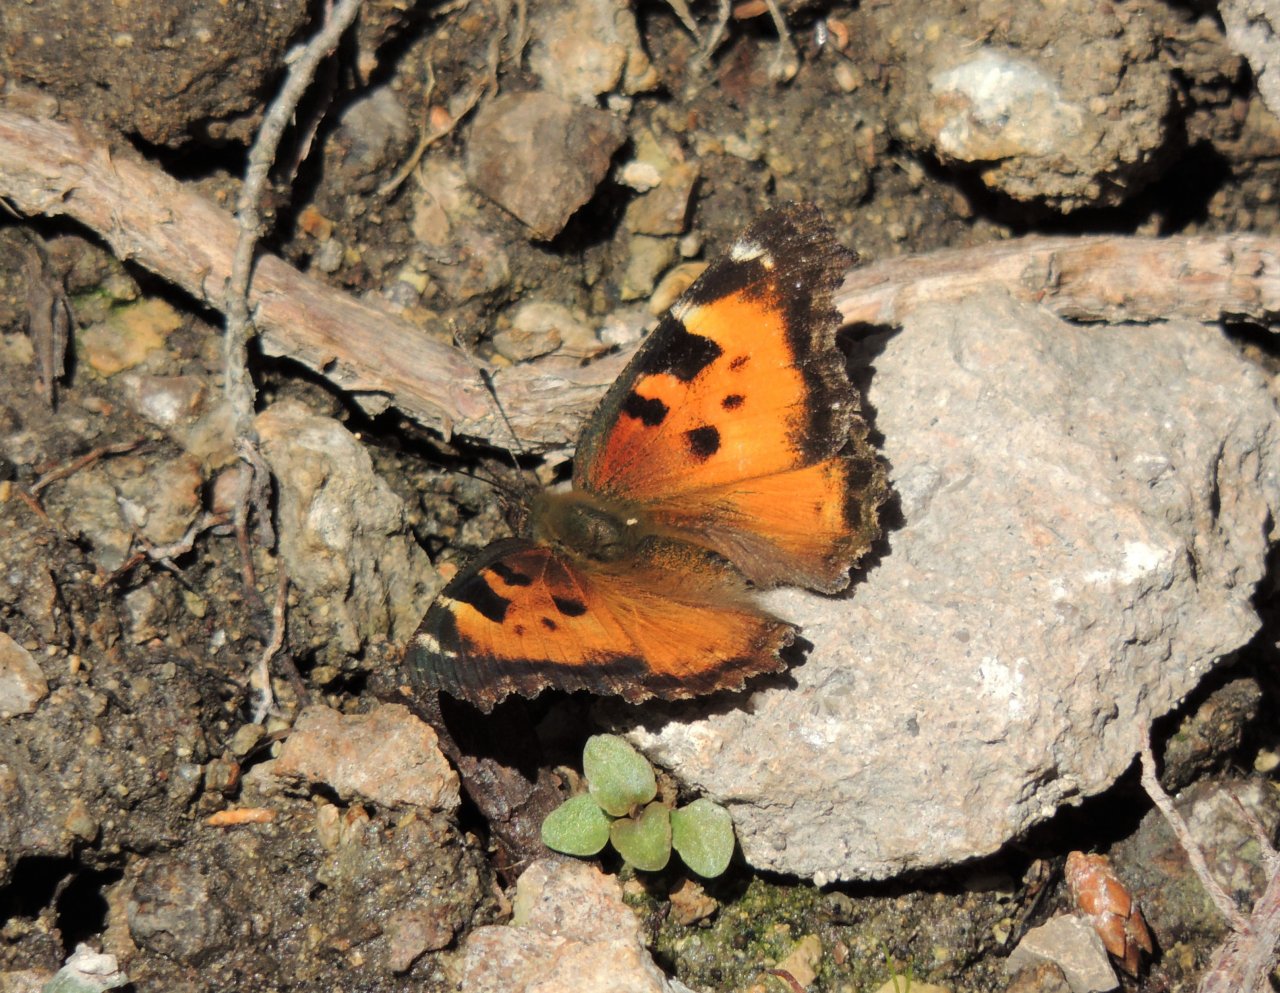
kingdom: Animalia
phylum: Arthropoda
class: Insecta
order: Lepidoptera
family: Nymphalidae
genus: Nymphalis
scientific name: Nymphalis californica
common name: California Tortoiseshell
